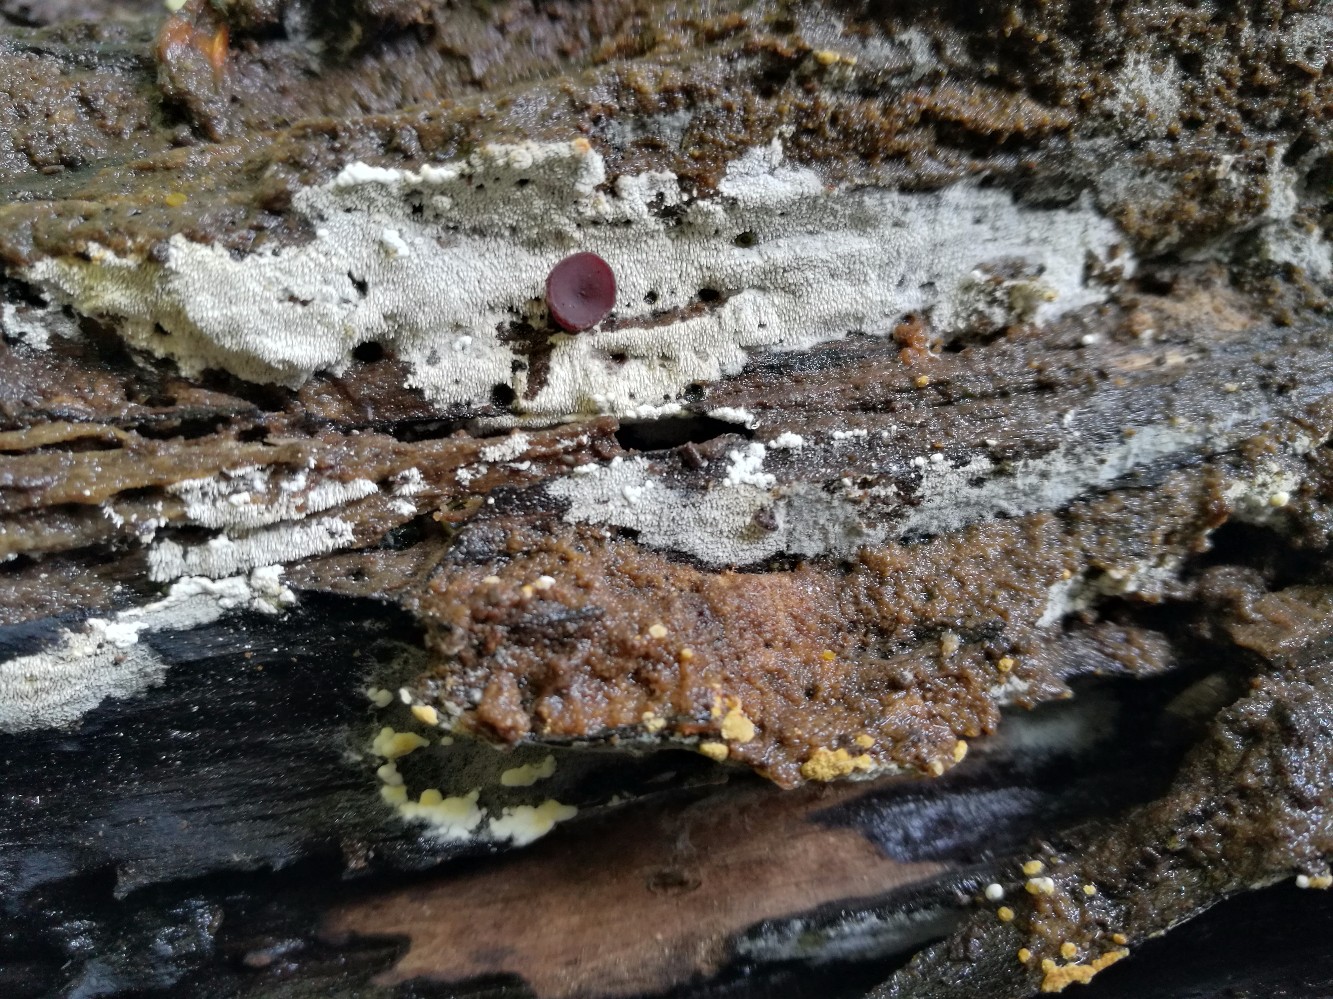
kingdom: Fungi
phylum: Basidiomycota
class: Agaricomycetes
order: Trechisporales
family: Sistotremataceae
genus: Trechispora
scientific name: Trechispora stevensonii
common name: støvende vathinde
